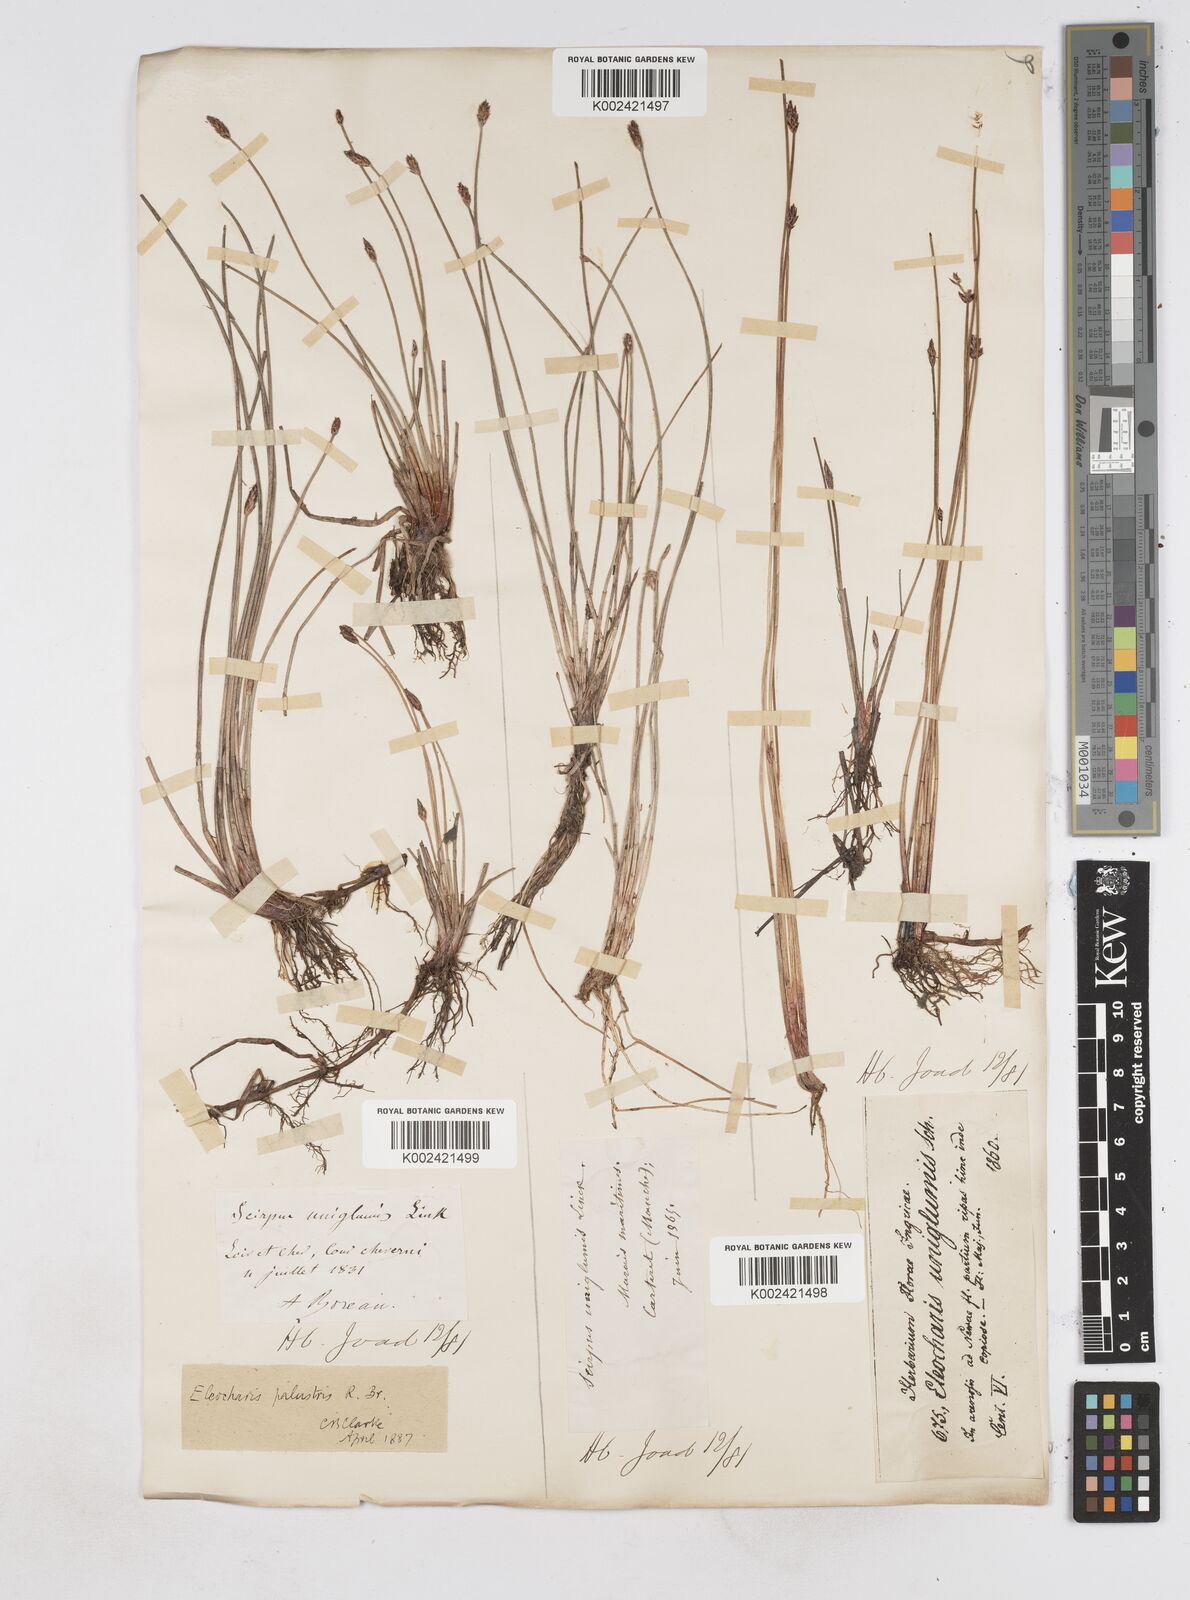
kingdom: Plantae
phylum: Tracheophyta
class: Liliopsida
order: Poales
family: Cyperaceae
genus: Eleocharis
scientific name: Eleocharis uniglumis
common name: Slender spike-rush
